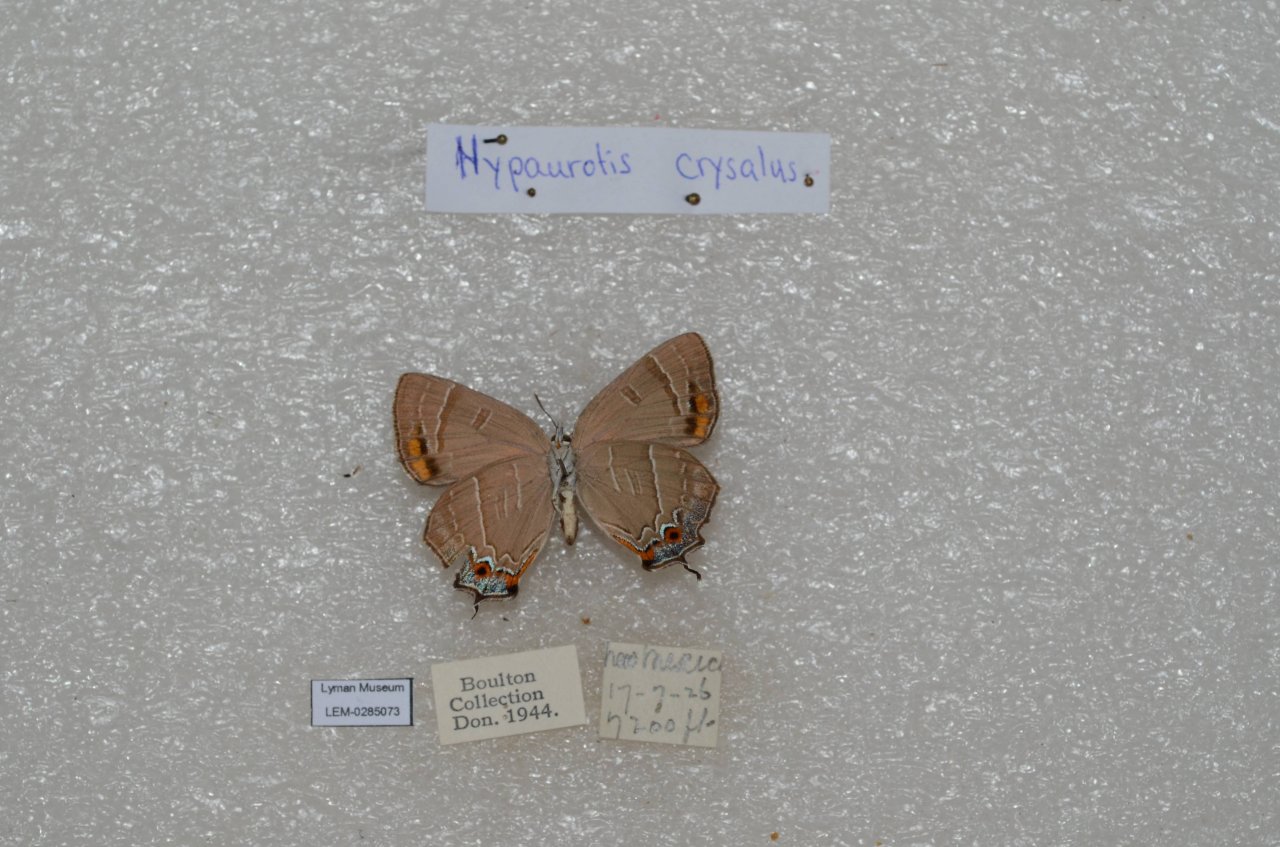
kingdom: Animalia
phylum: Arthropoda
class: Insecta
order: Lepidoptera
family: Lycaenidae
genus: Hypaurotis
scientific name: Hypaurotis crysalus
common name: Colorado Hairstreak
